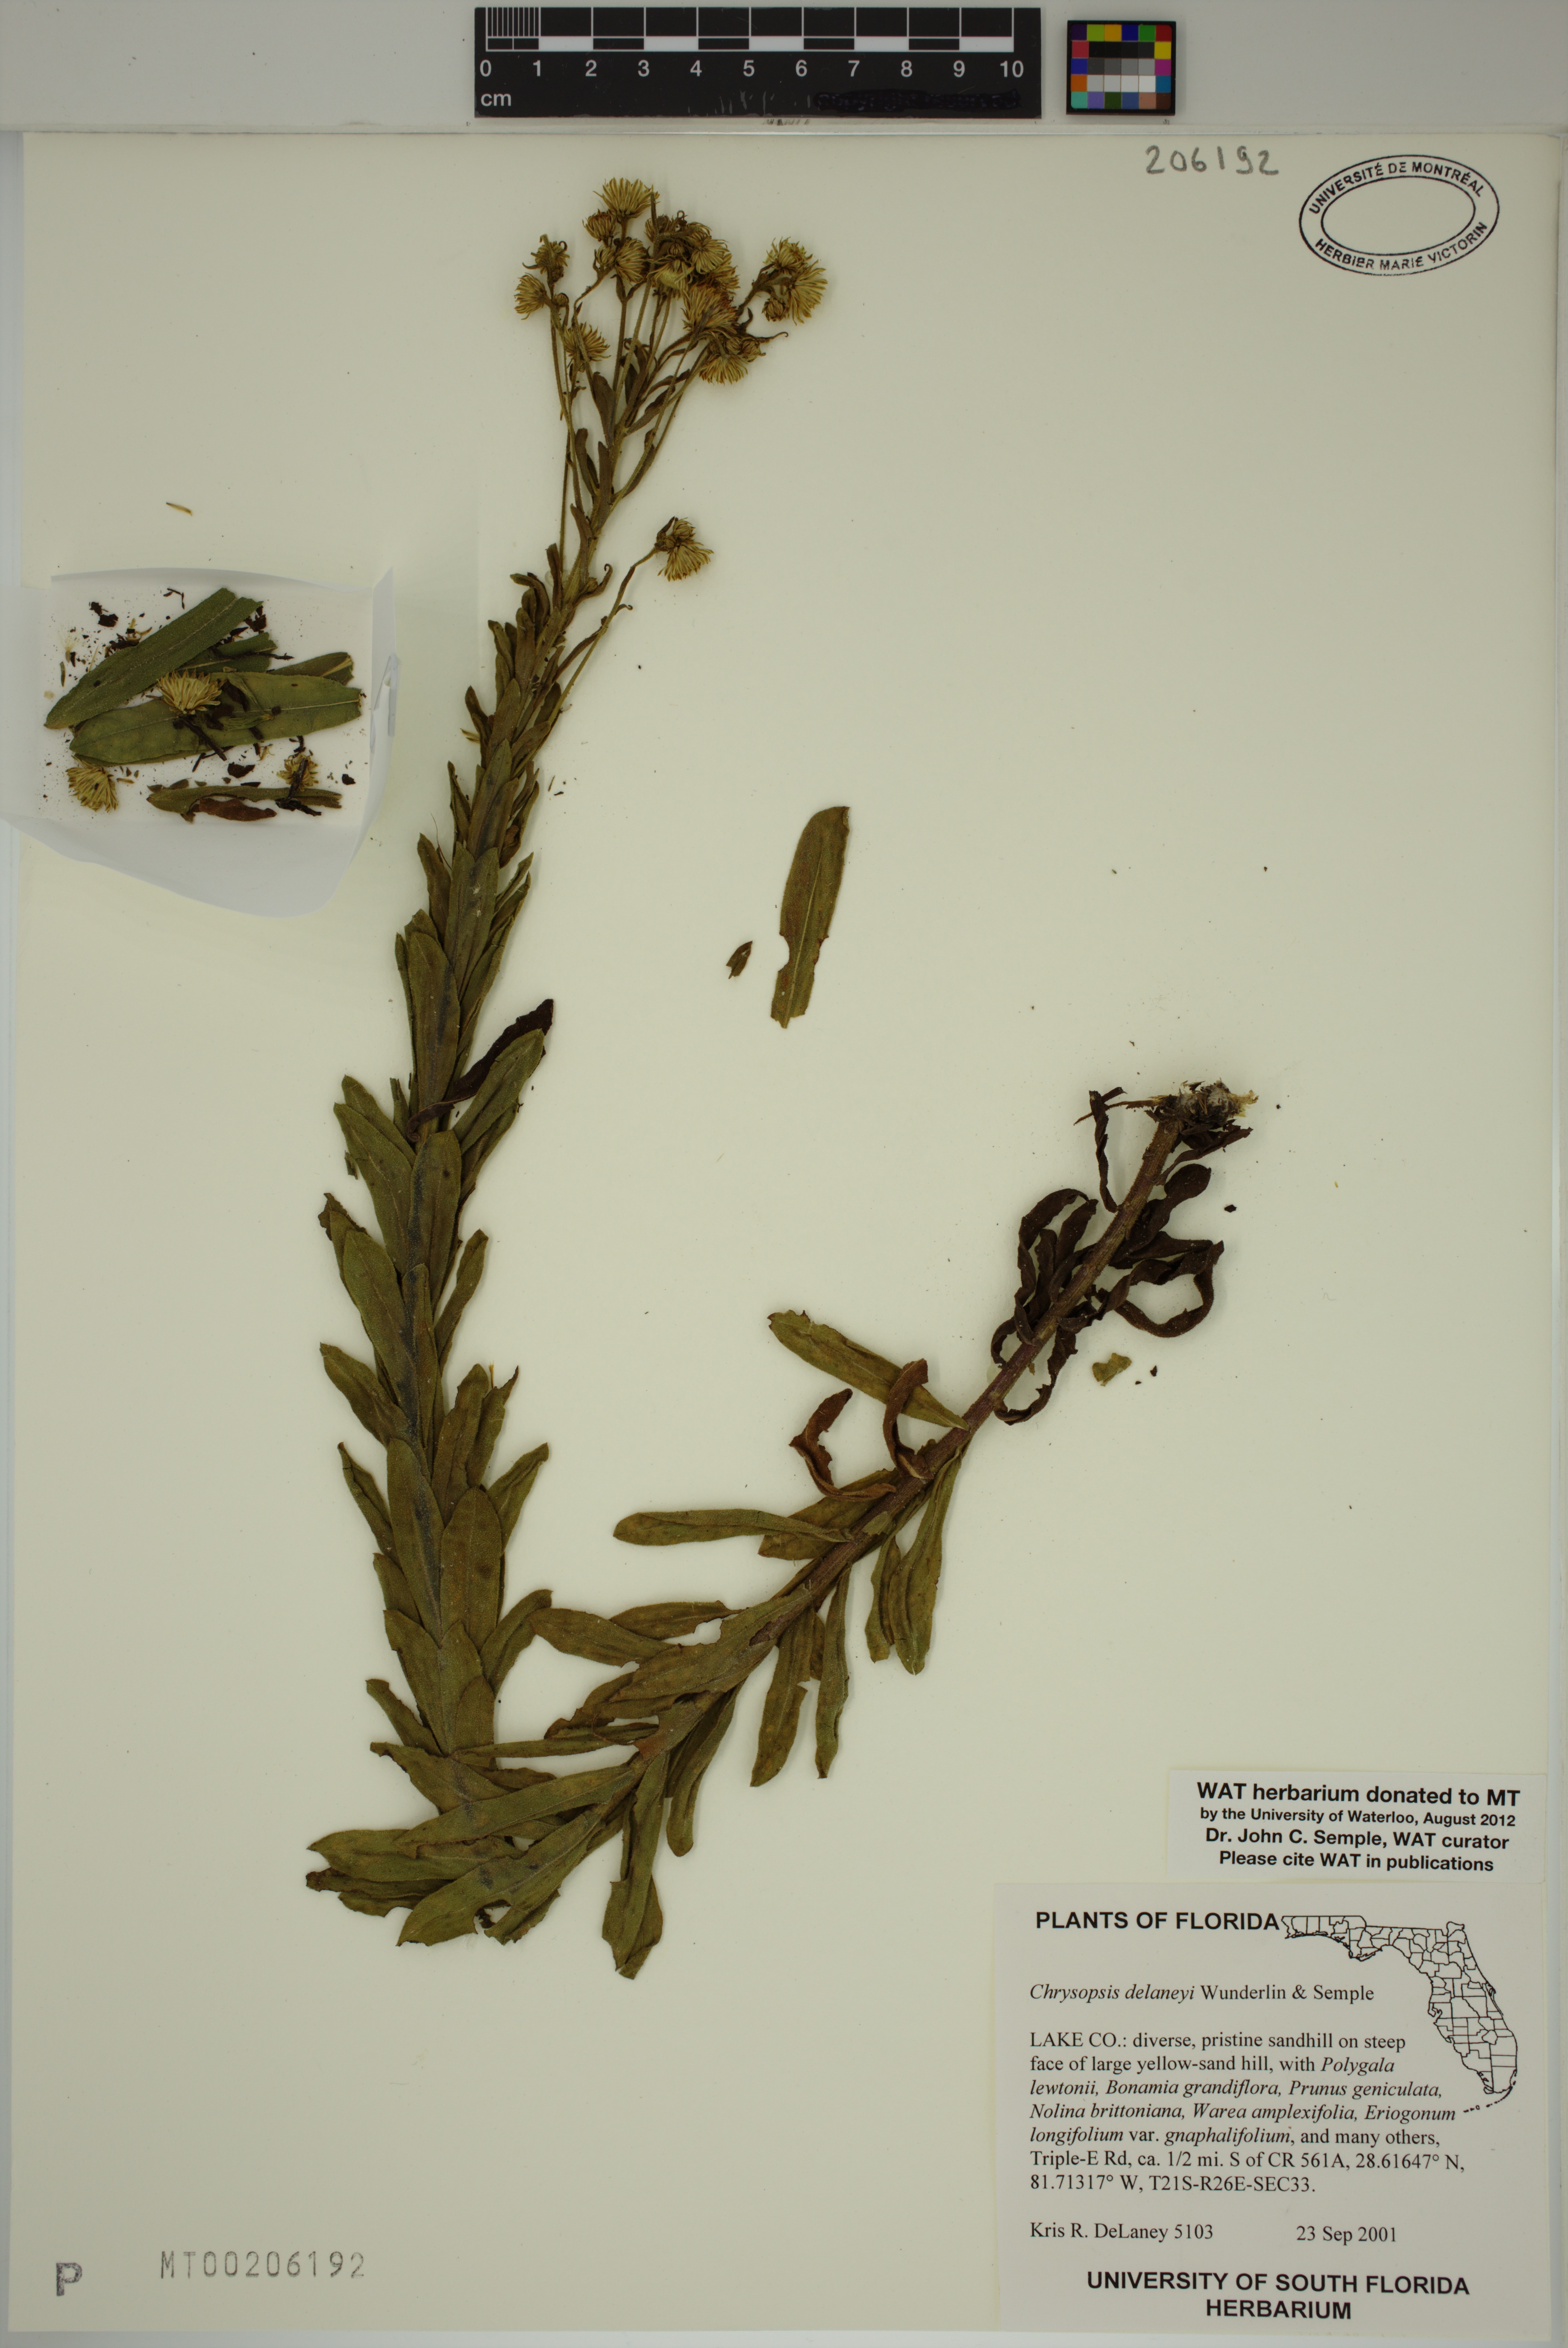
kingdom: Plantae
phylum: Tracheophyta
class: Magnoliopsida
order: Asterales
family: Asteraceae
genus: Chrysopsis
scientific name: Chrysopsis delaneyi
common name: Delaney's goldenaster
